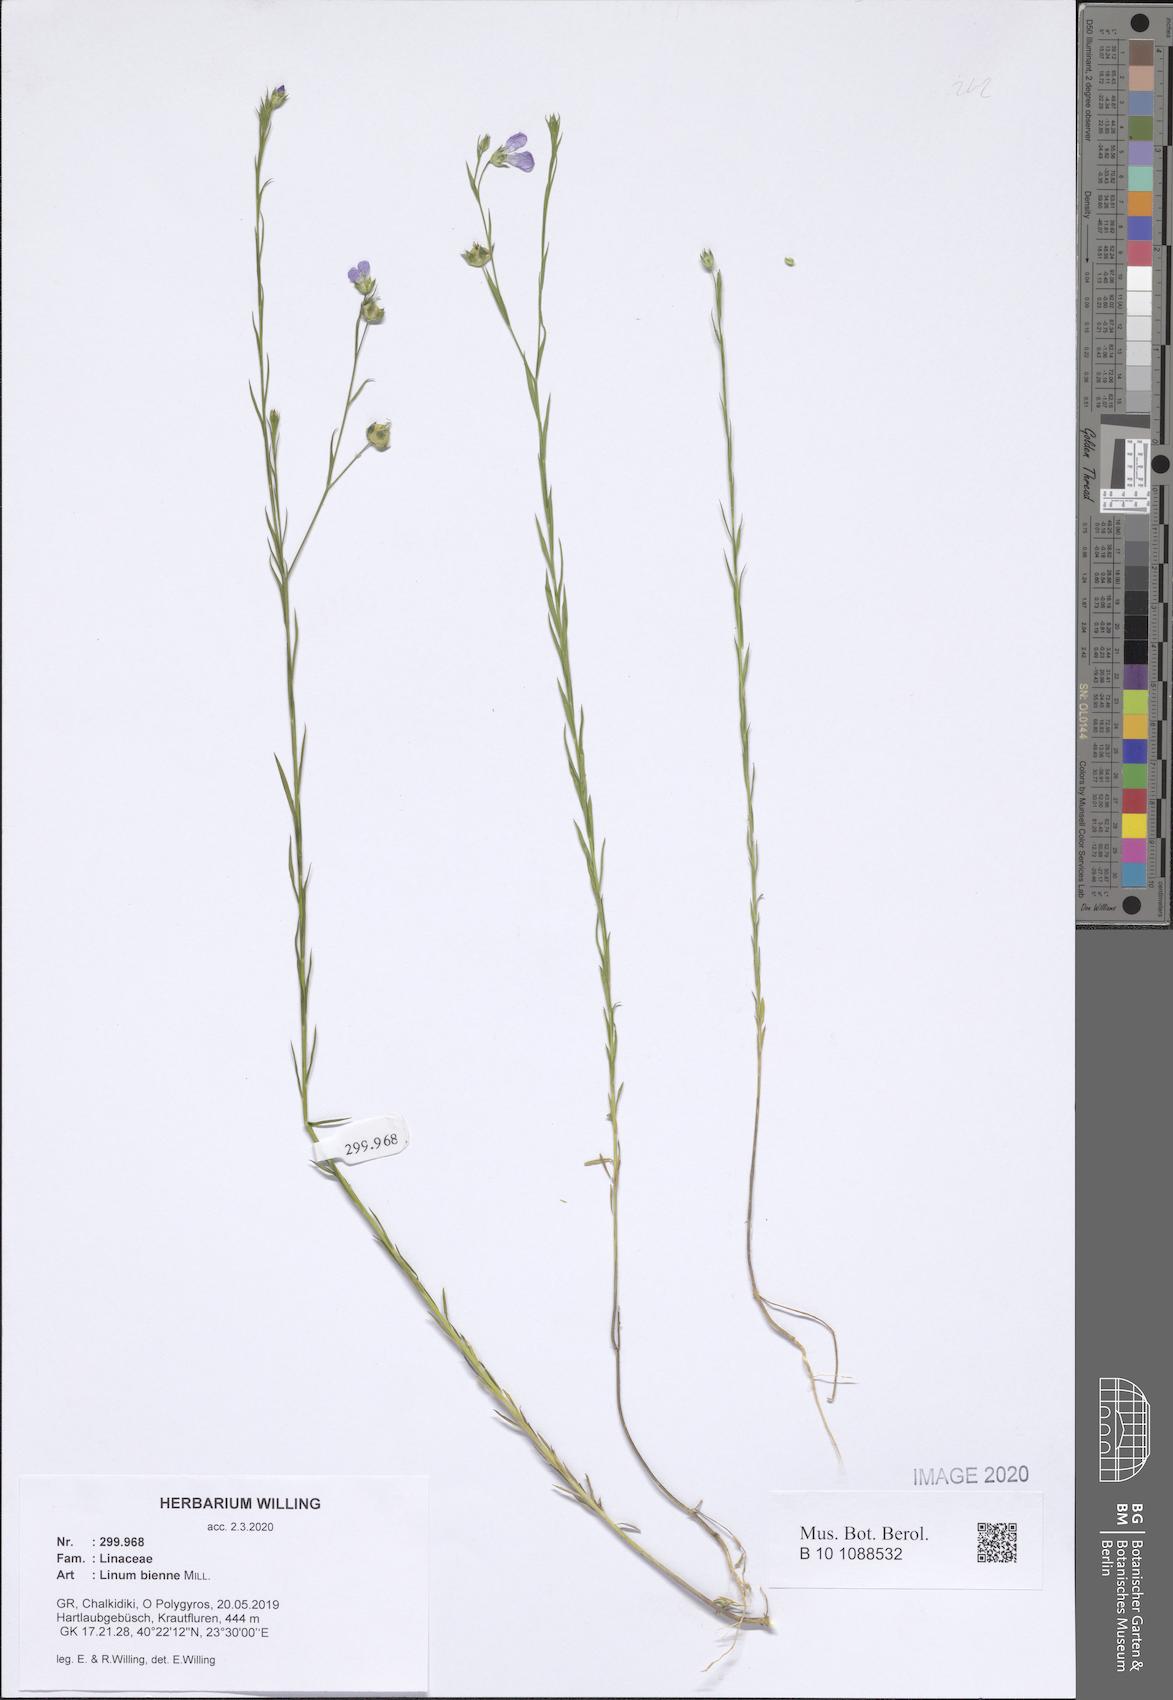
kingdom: Plantae
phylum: Tracheophyta
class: Magnoliopsida
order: Malpighiales
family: Linaceae
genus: Linum
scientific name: Linum bienne
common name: Pale flax
